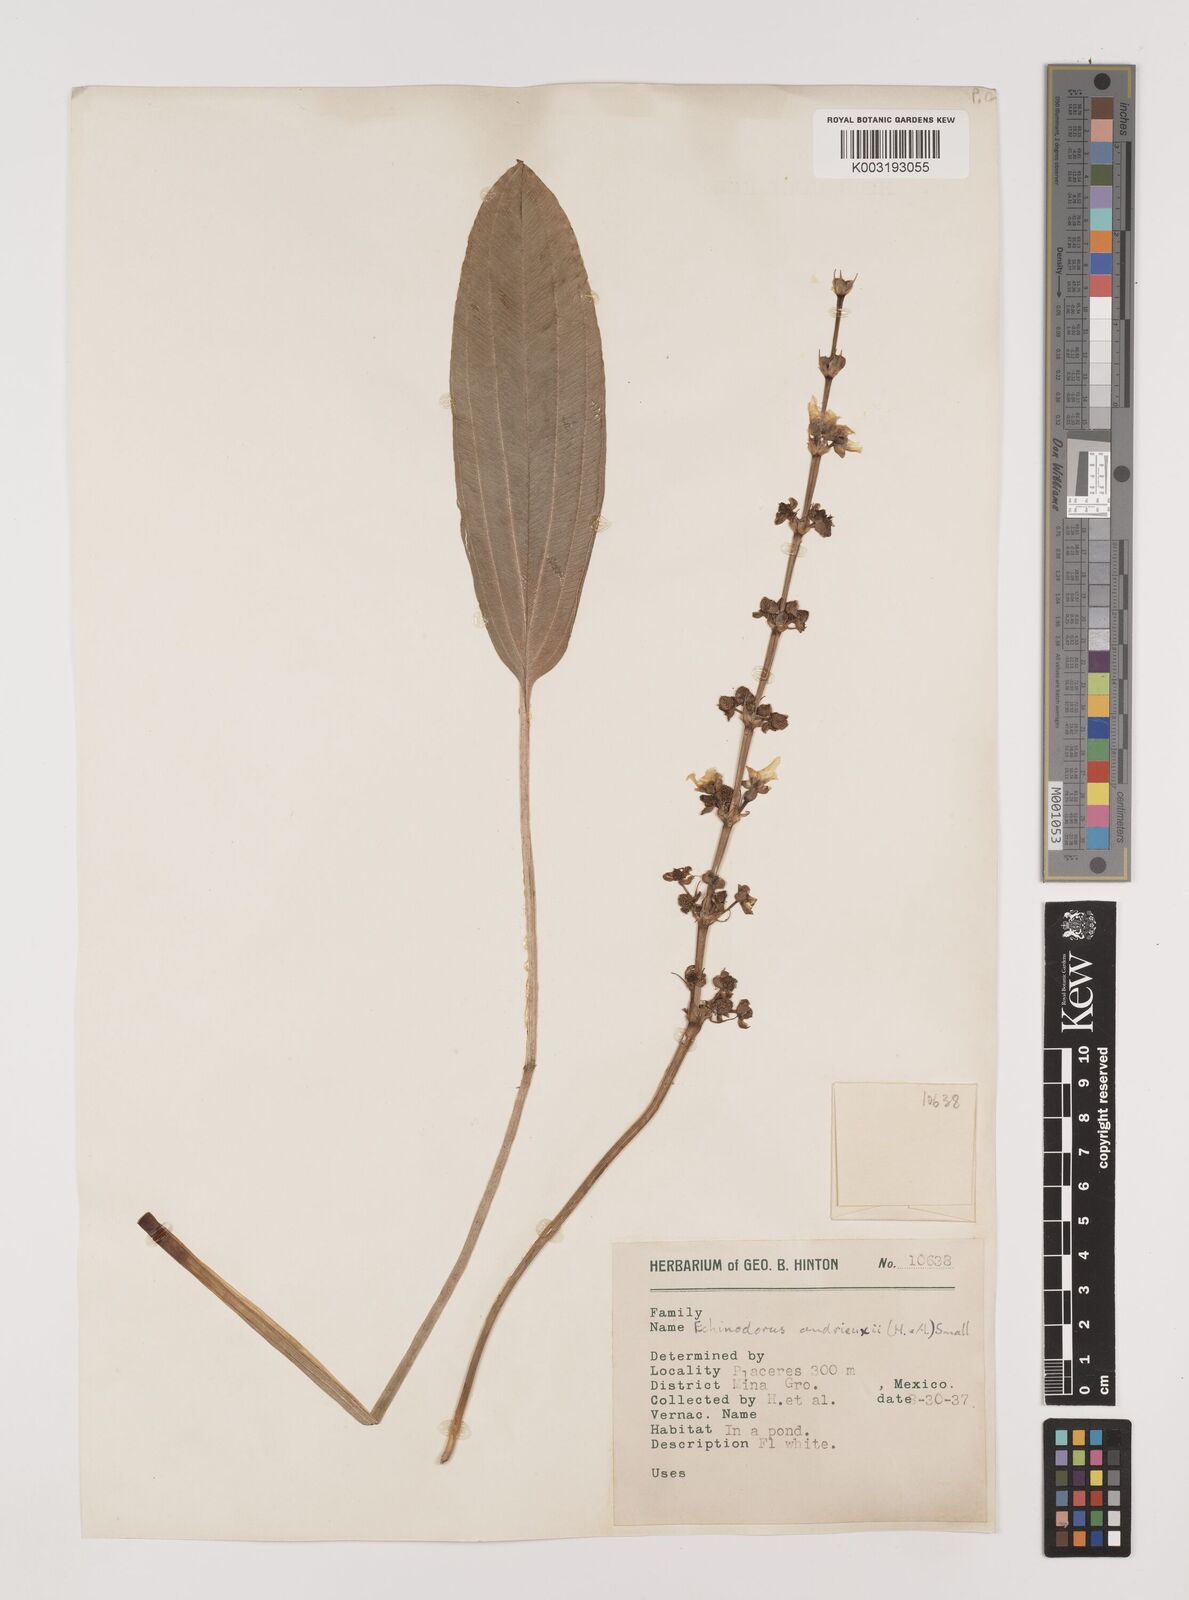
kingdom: Plantae
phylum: Tracheophyta
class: Liliopsida
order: Alismatales
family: Alismataceae
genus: Aquarius
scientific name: Aquarius subulatus
